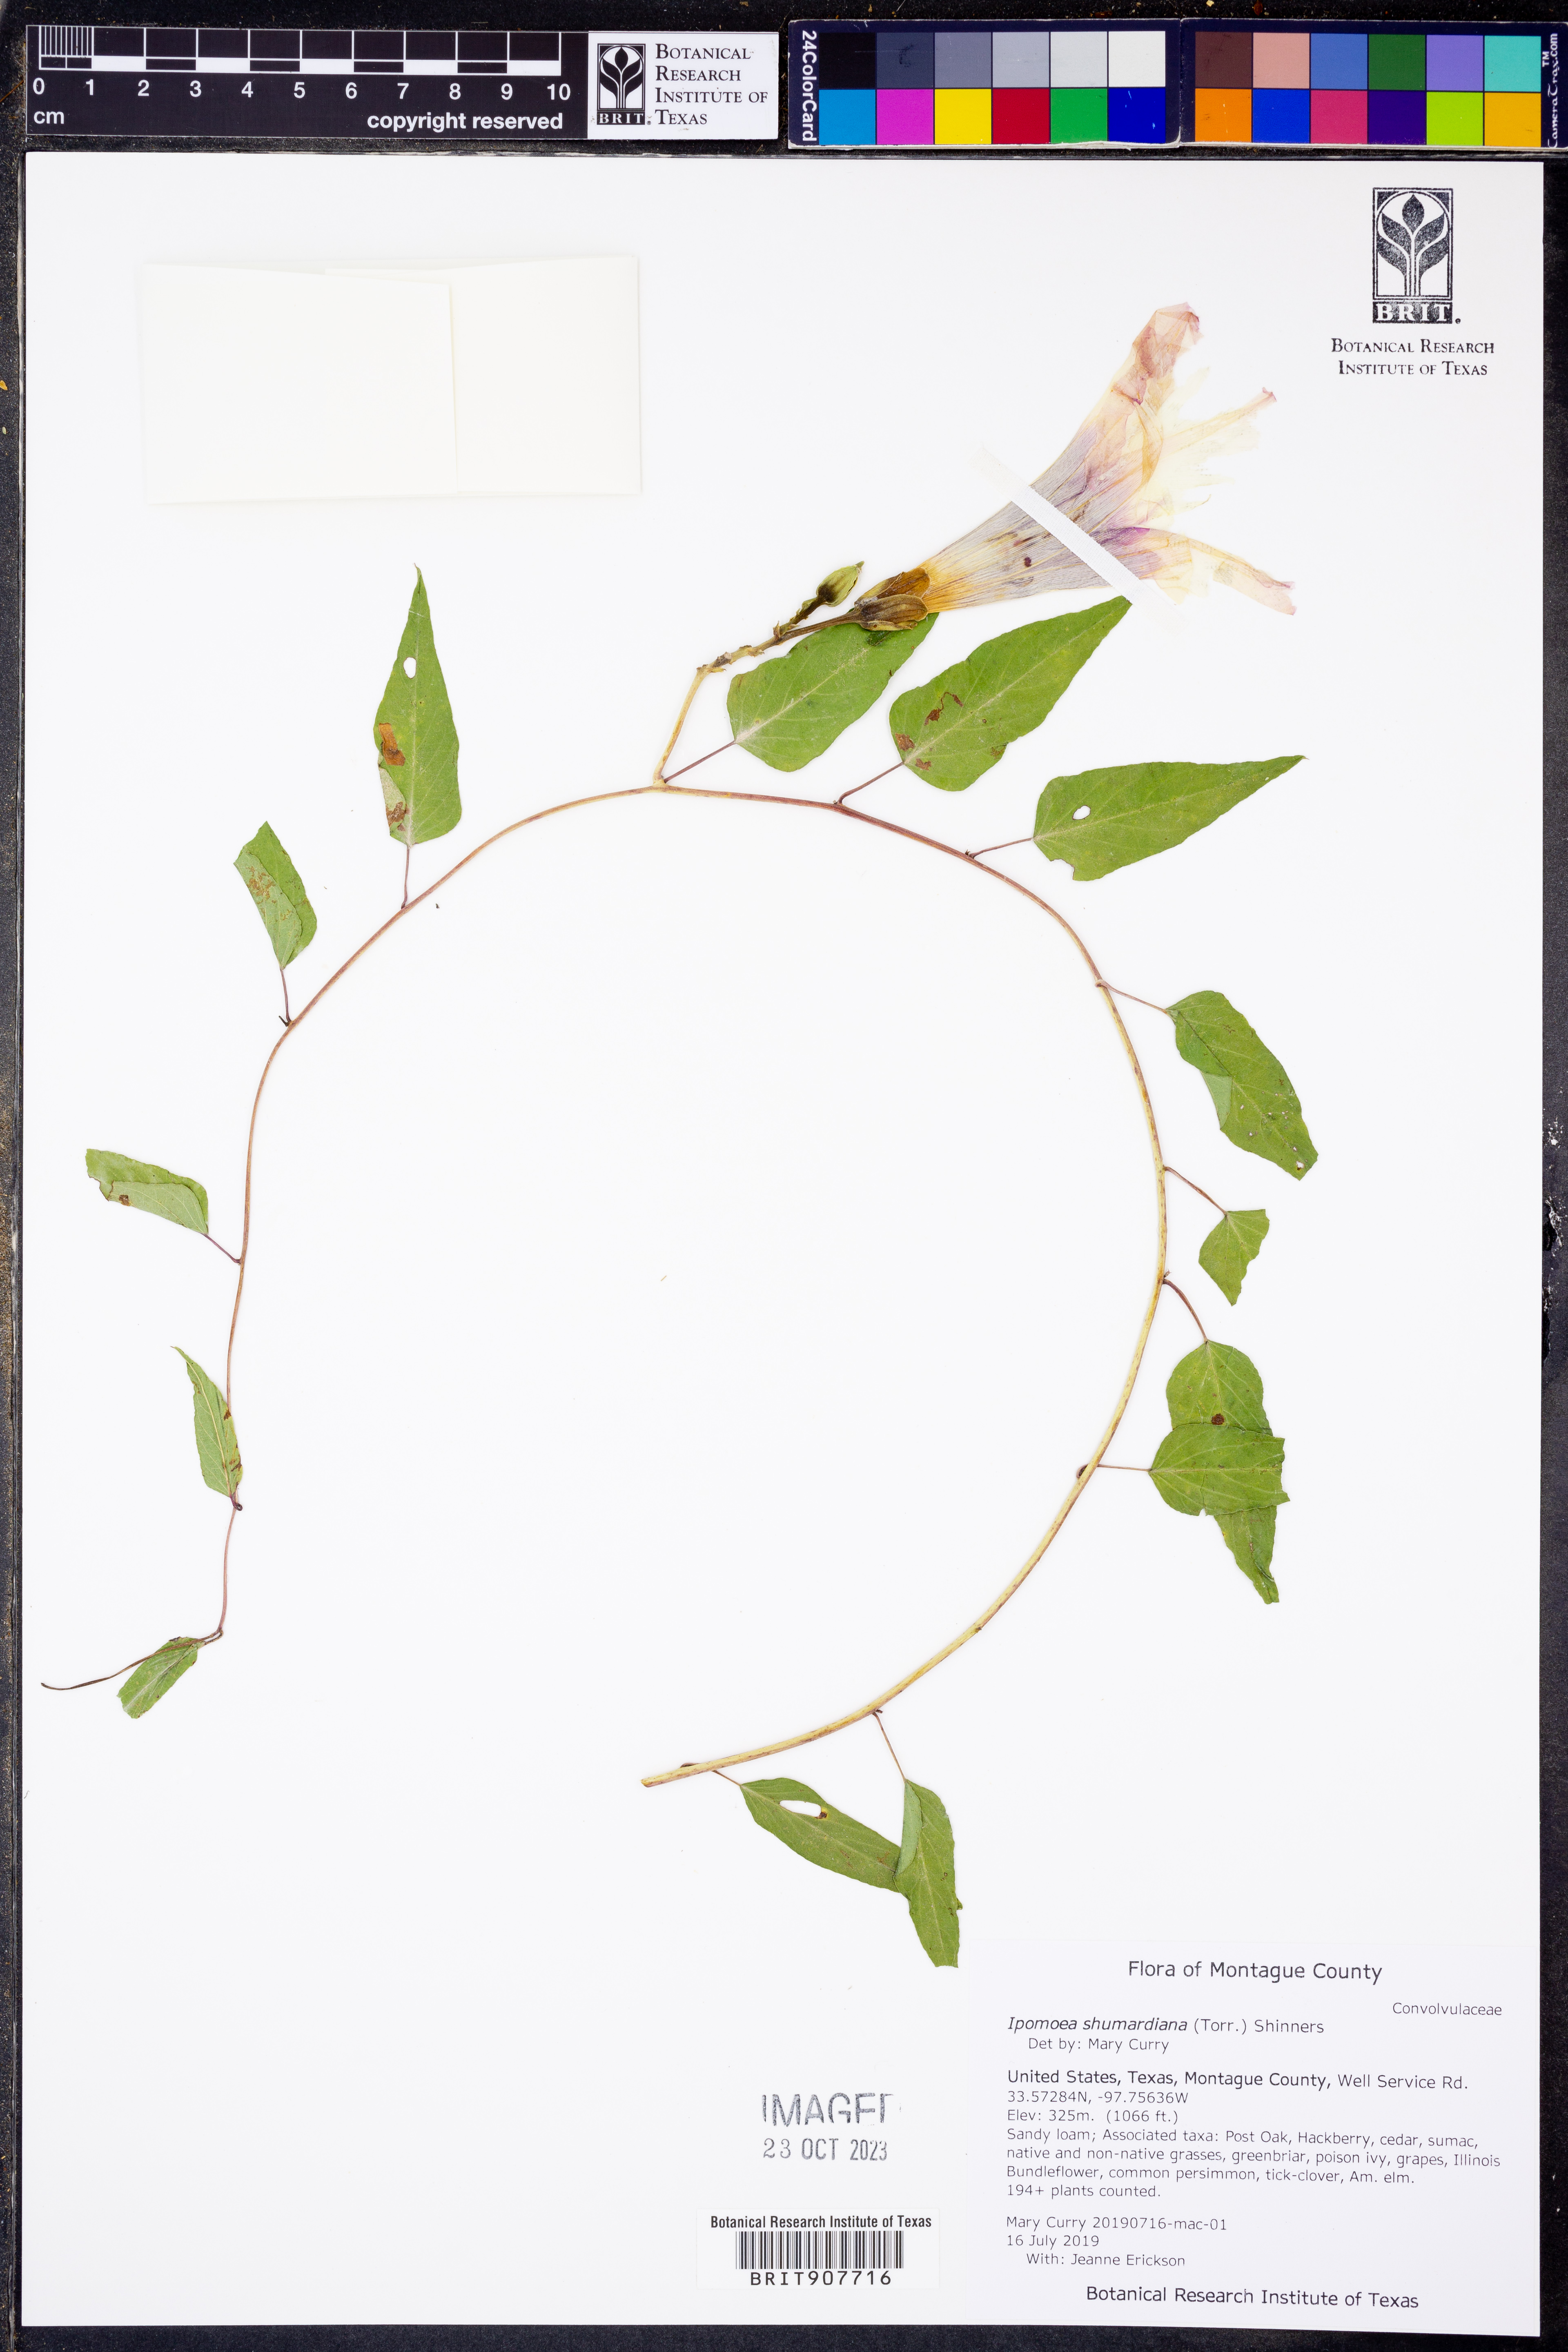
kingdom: Plantae
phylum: Tracheophyta
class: Magnoliopsida
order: Solanales
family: Convolvulaceae
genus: Ipomoea
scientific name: Ipomoea shumardiana
